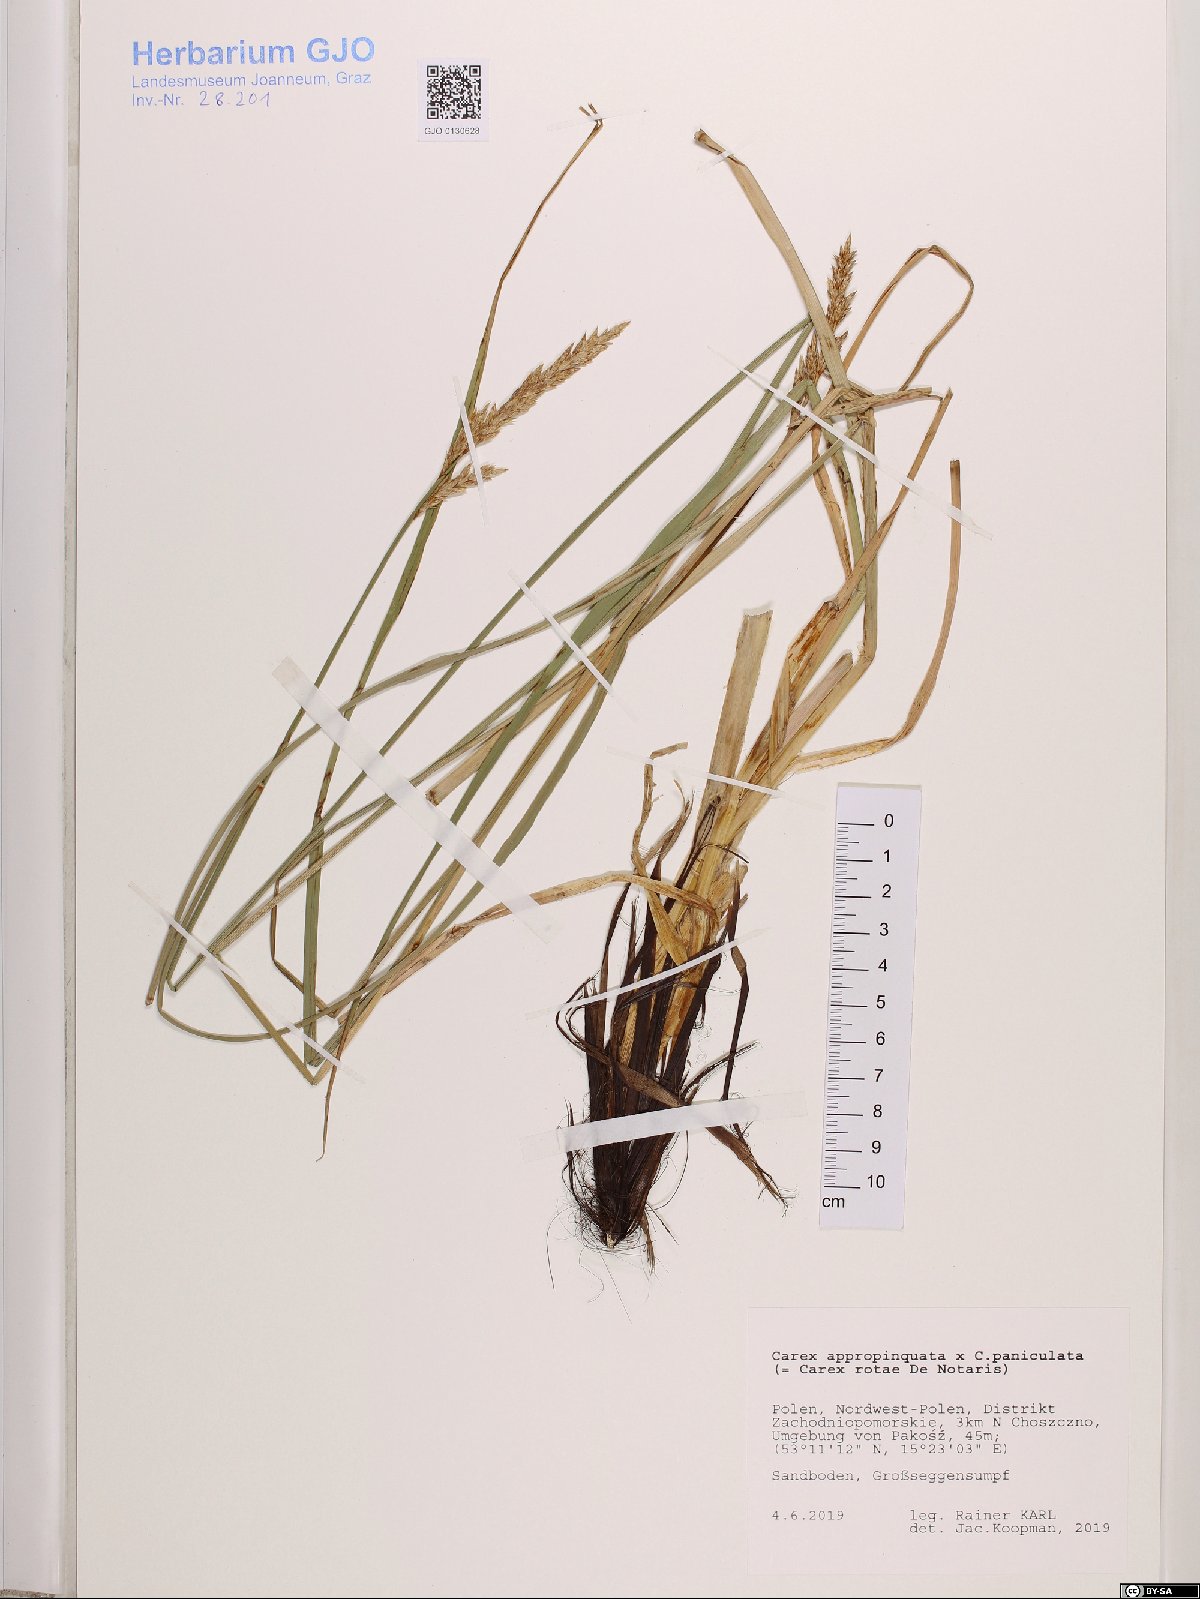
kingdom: Plantae
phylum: Tracheophyta
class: Liliopsida
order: Poales
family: Cyperaceae
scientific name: Cyperaceae
